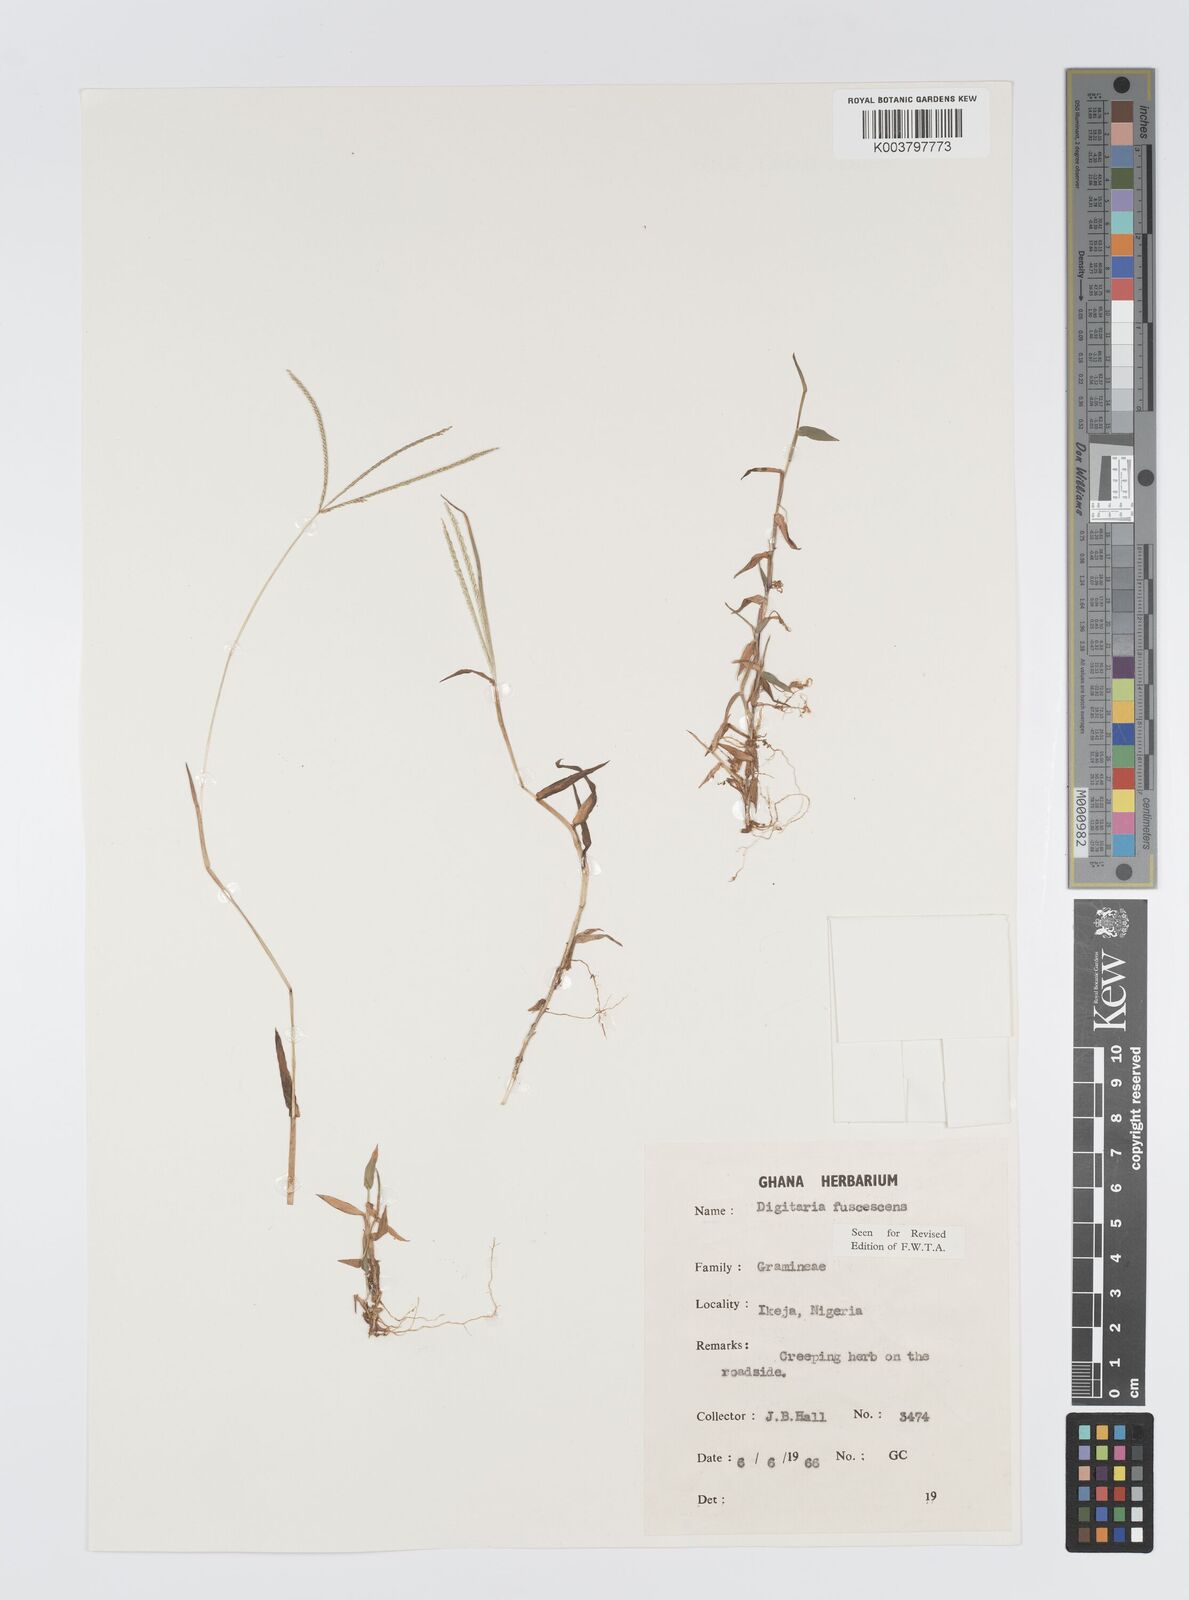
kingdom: Plantae
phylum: Tracheophyta
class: Liliopsida
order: Poales
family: Poaceae
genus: Digitaria
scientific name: Digitaria fuscescens
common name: Yellow crabgrass
